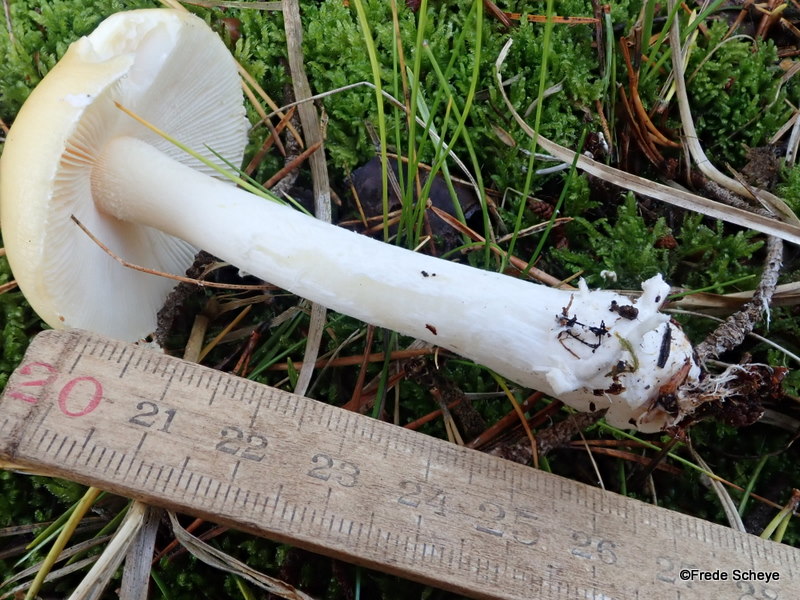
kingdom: Fungi
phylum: Basidiomycota
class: Agaricomycetes
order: Agaricales
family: Amanitaceae
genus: Amanita
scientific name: Amanita gemmata
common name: okkergul fluesvamp
